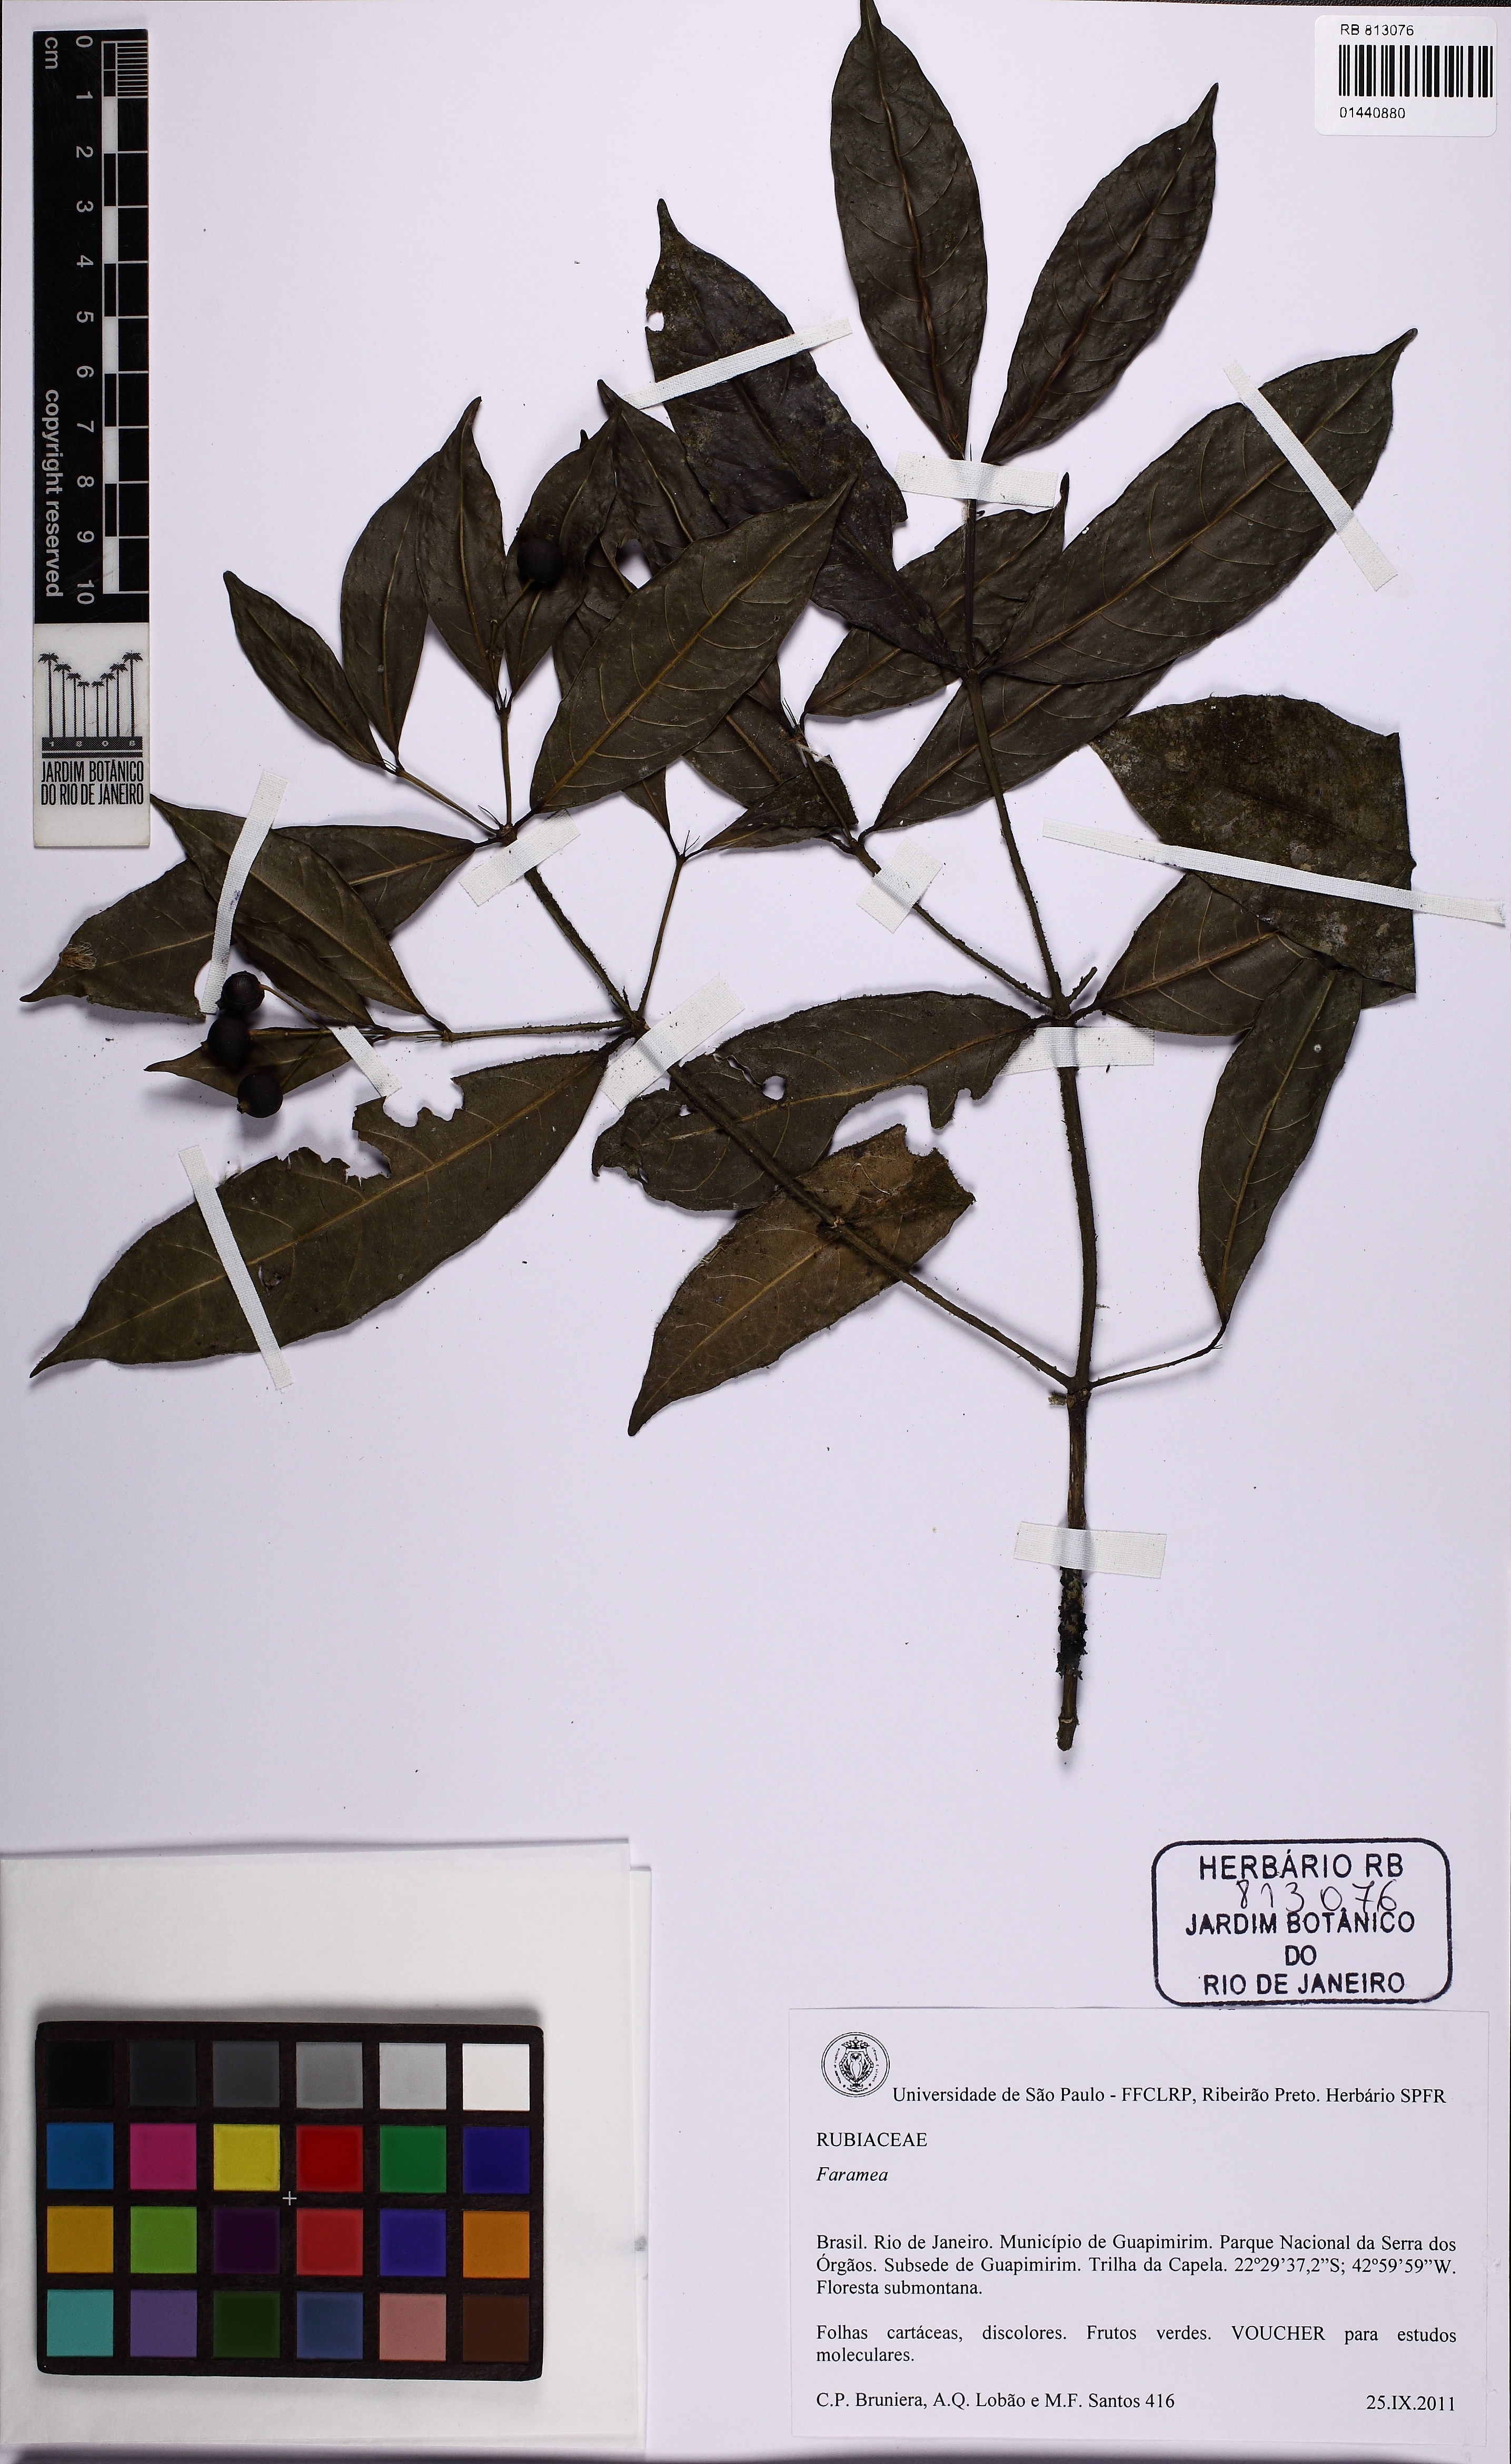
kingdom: Plantae
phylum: Tracheophyta
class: Magnoliopsida
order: Gentianales
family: Rubiaceae
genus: Faramea
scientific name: Faramea caudata
